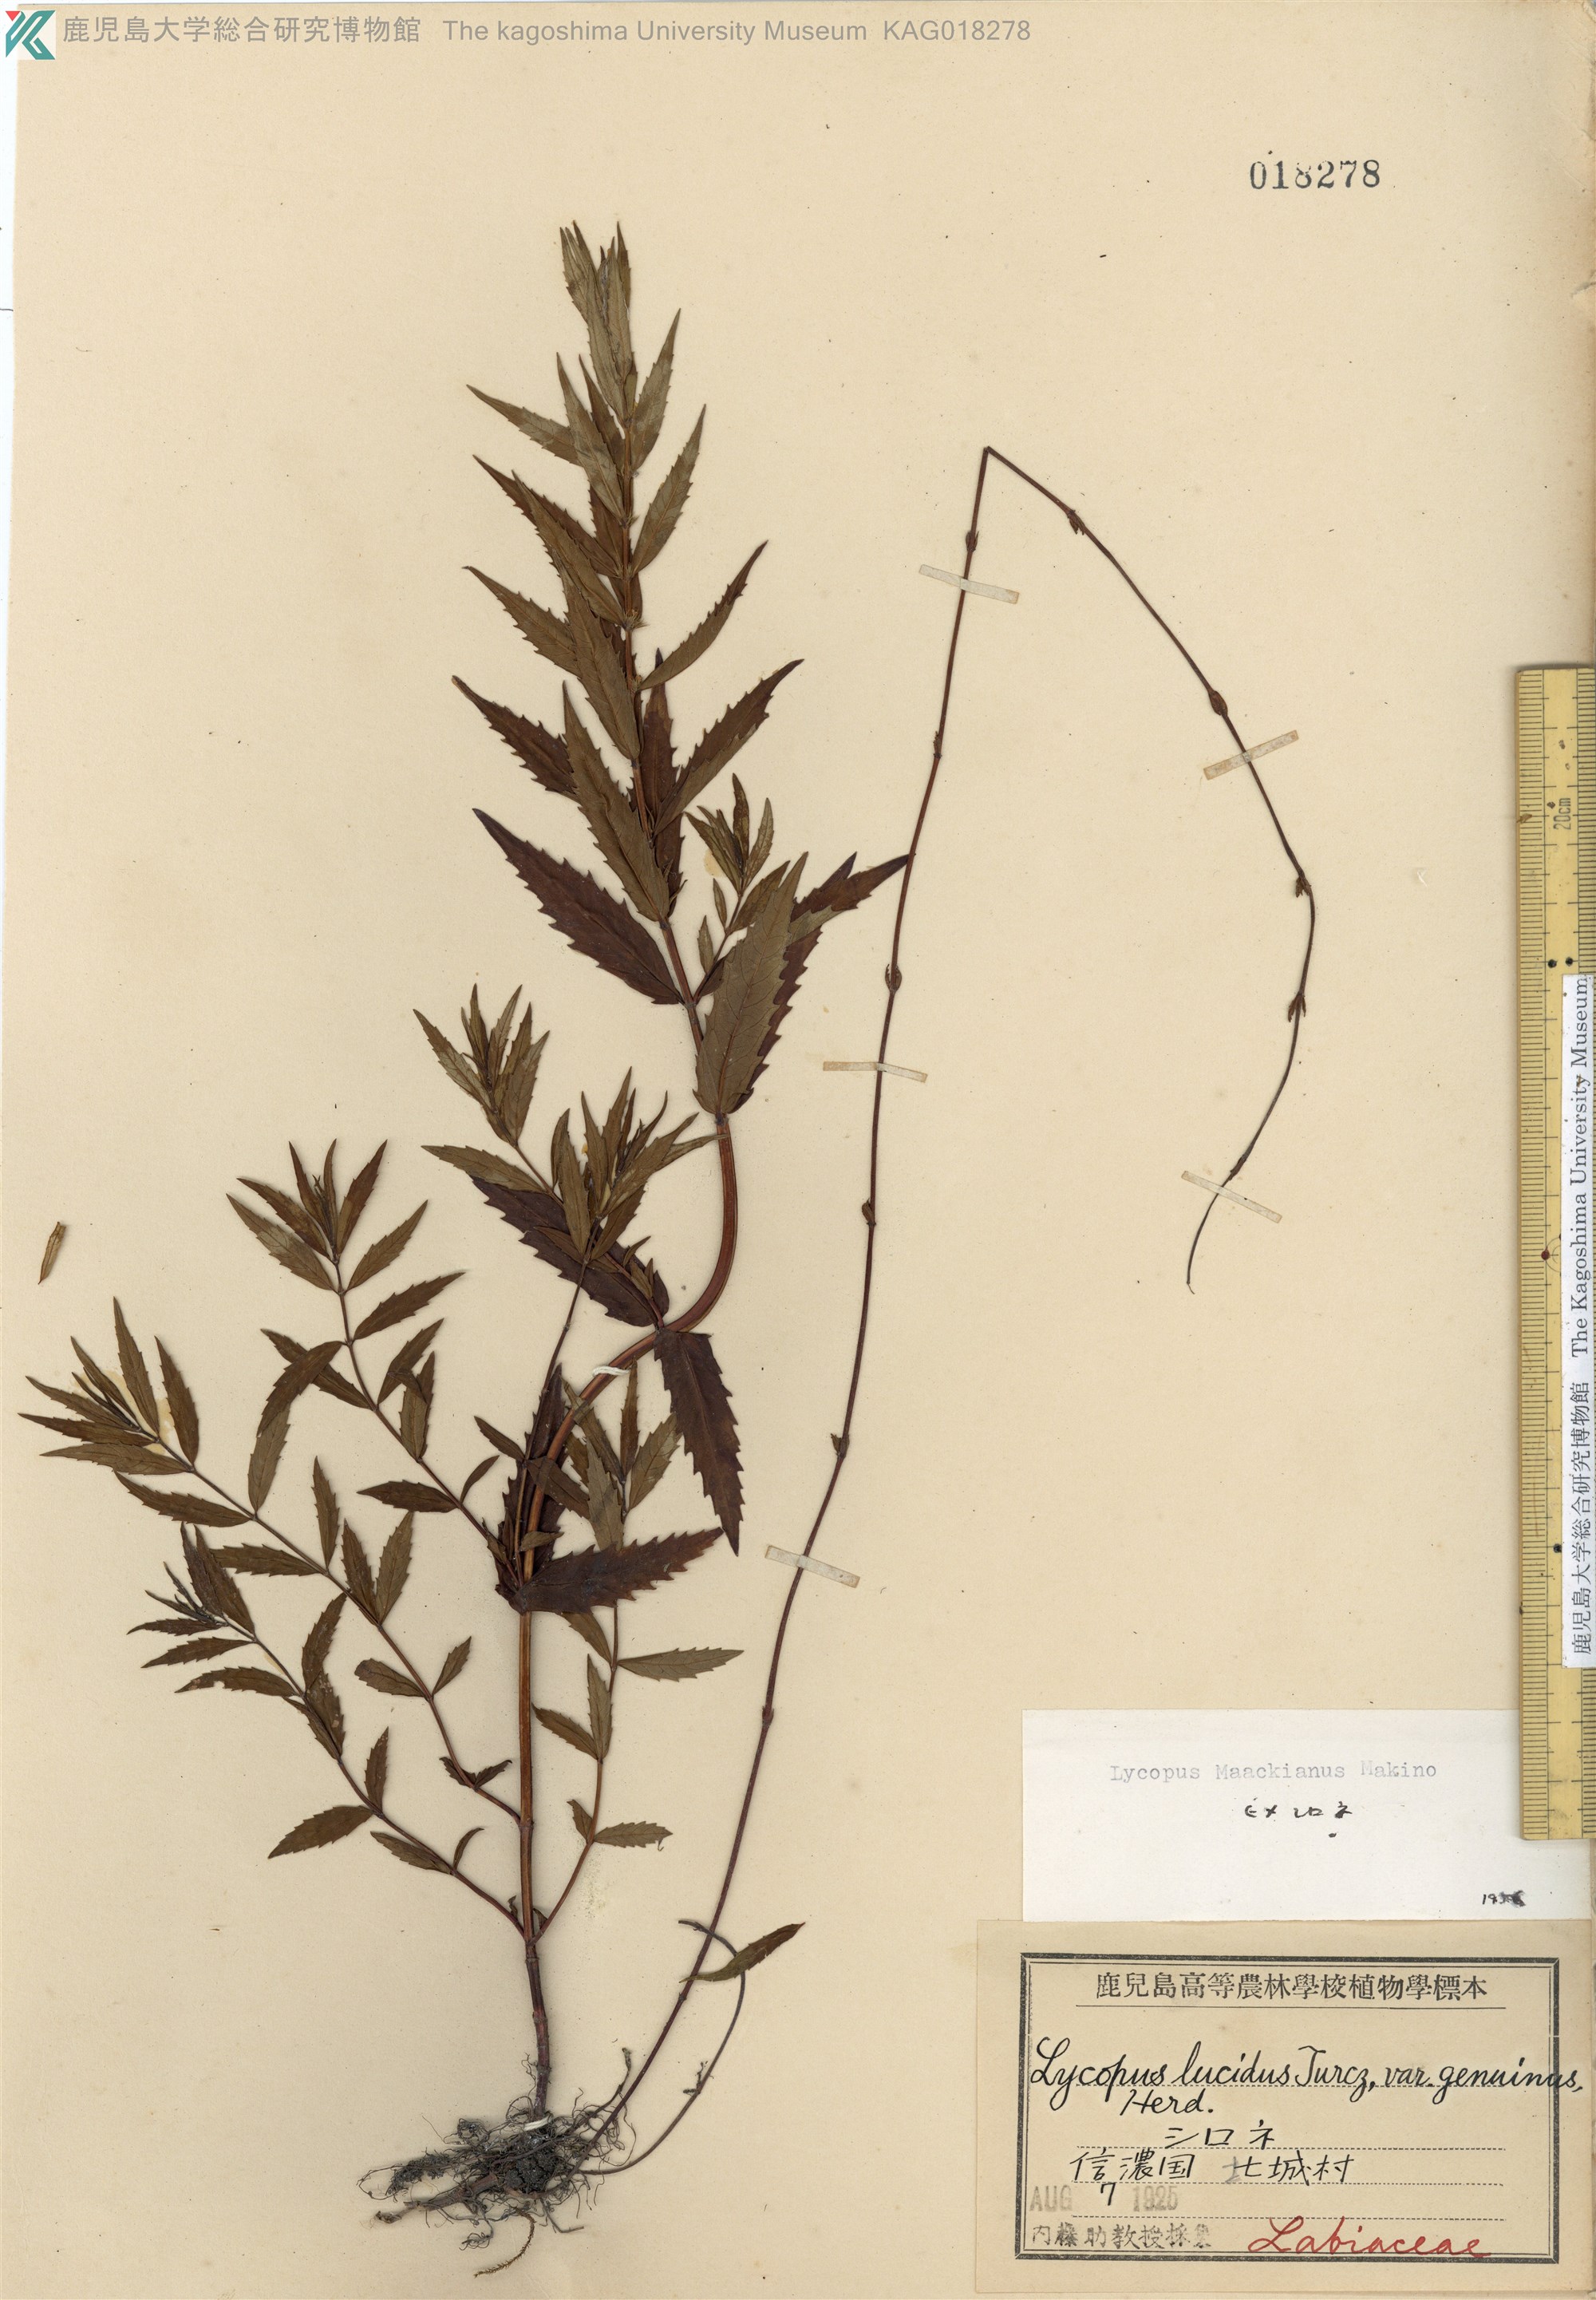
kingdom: Plantae
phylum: Tracheophyta
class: Magnoliopsida
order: Lamiales
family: Lamiaceae
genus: Lycopus
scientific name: Lycopus lucidus
